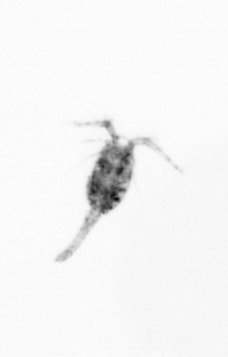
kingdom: Animalia
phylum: Arthropoda
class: Copepoda
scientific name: Copepoda
